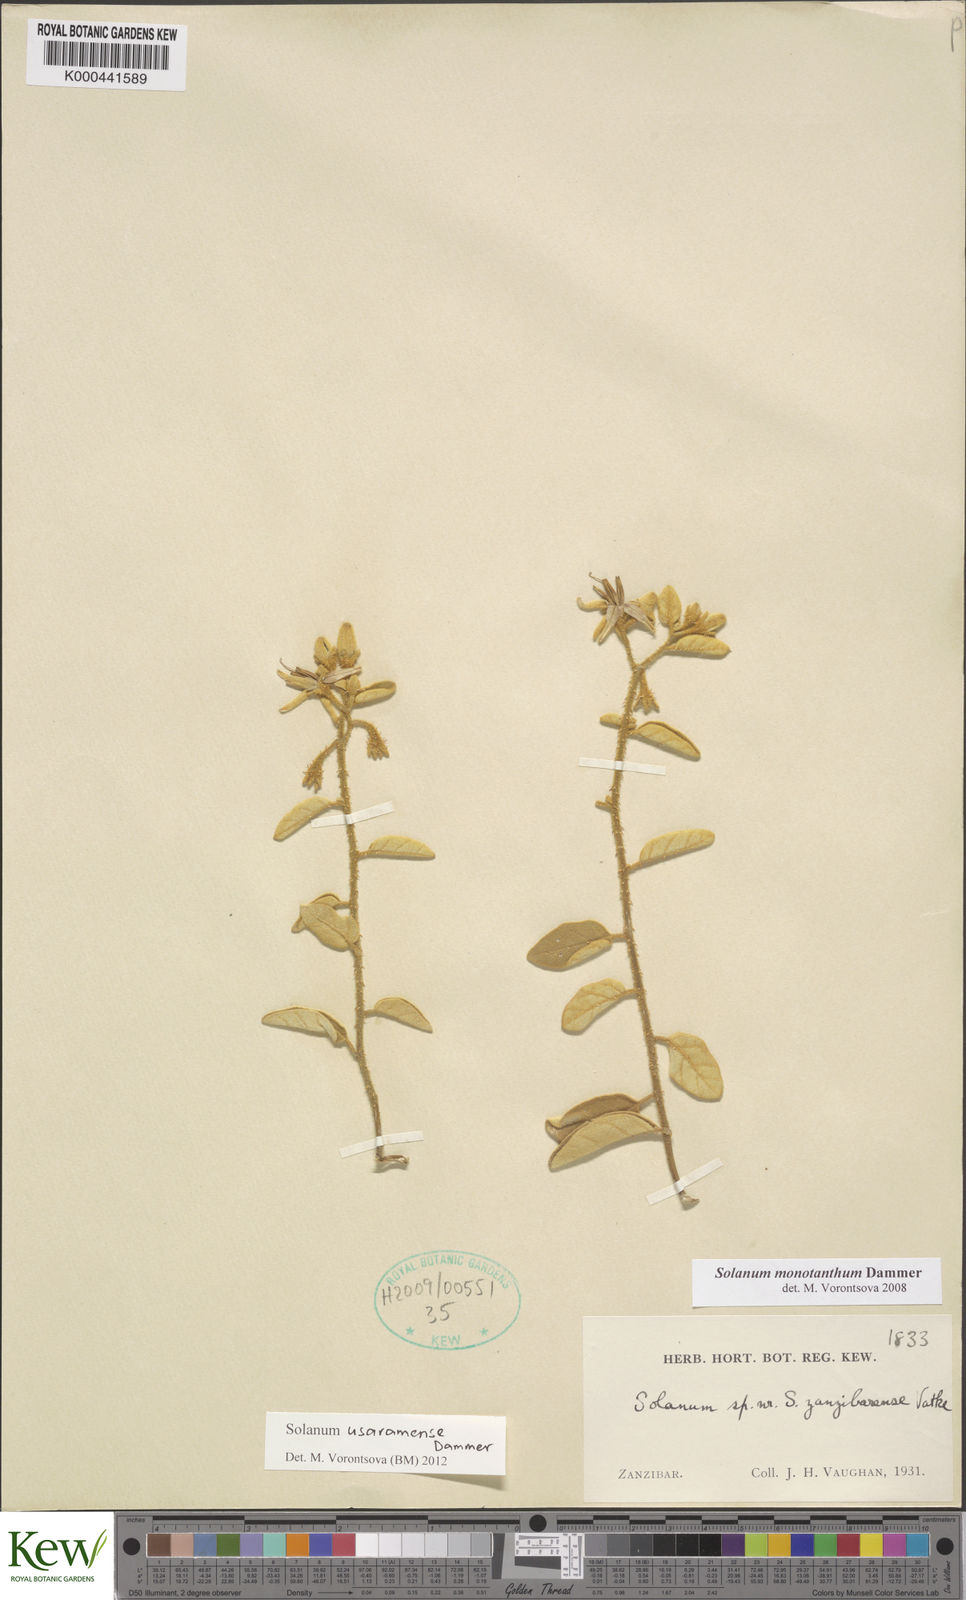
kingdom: Plantae
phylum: Tracheophyta
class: Magnoliopsida
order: Solanales
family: Solanaceae
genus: Solanum
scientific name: Solanum usaramense
